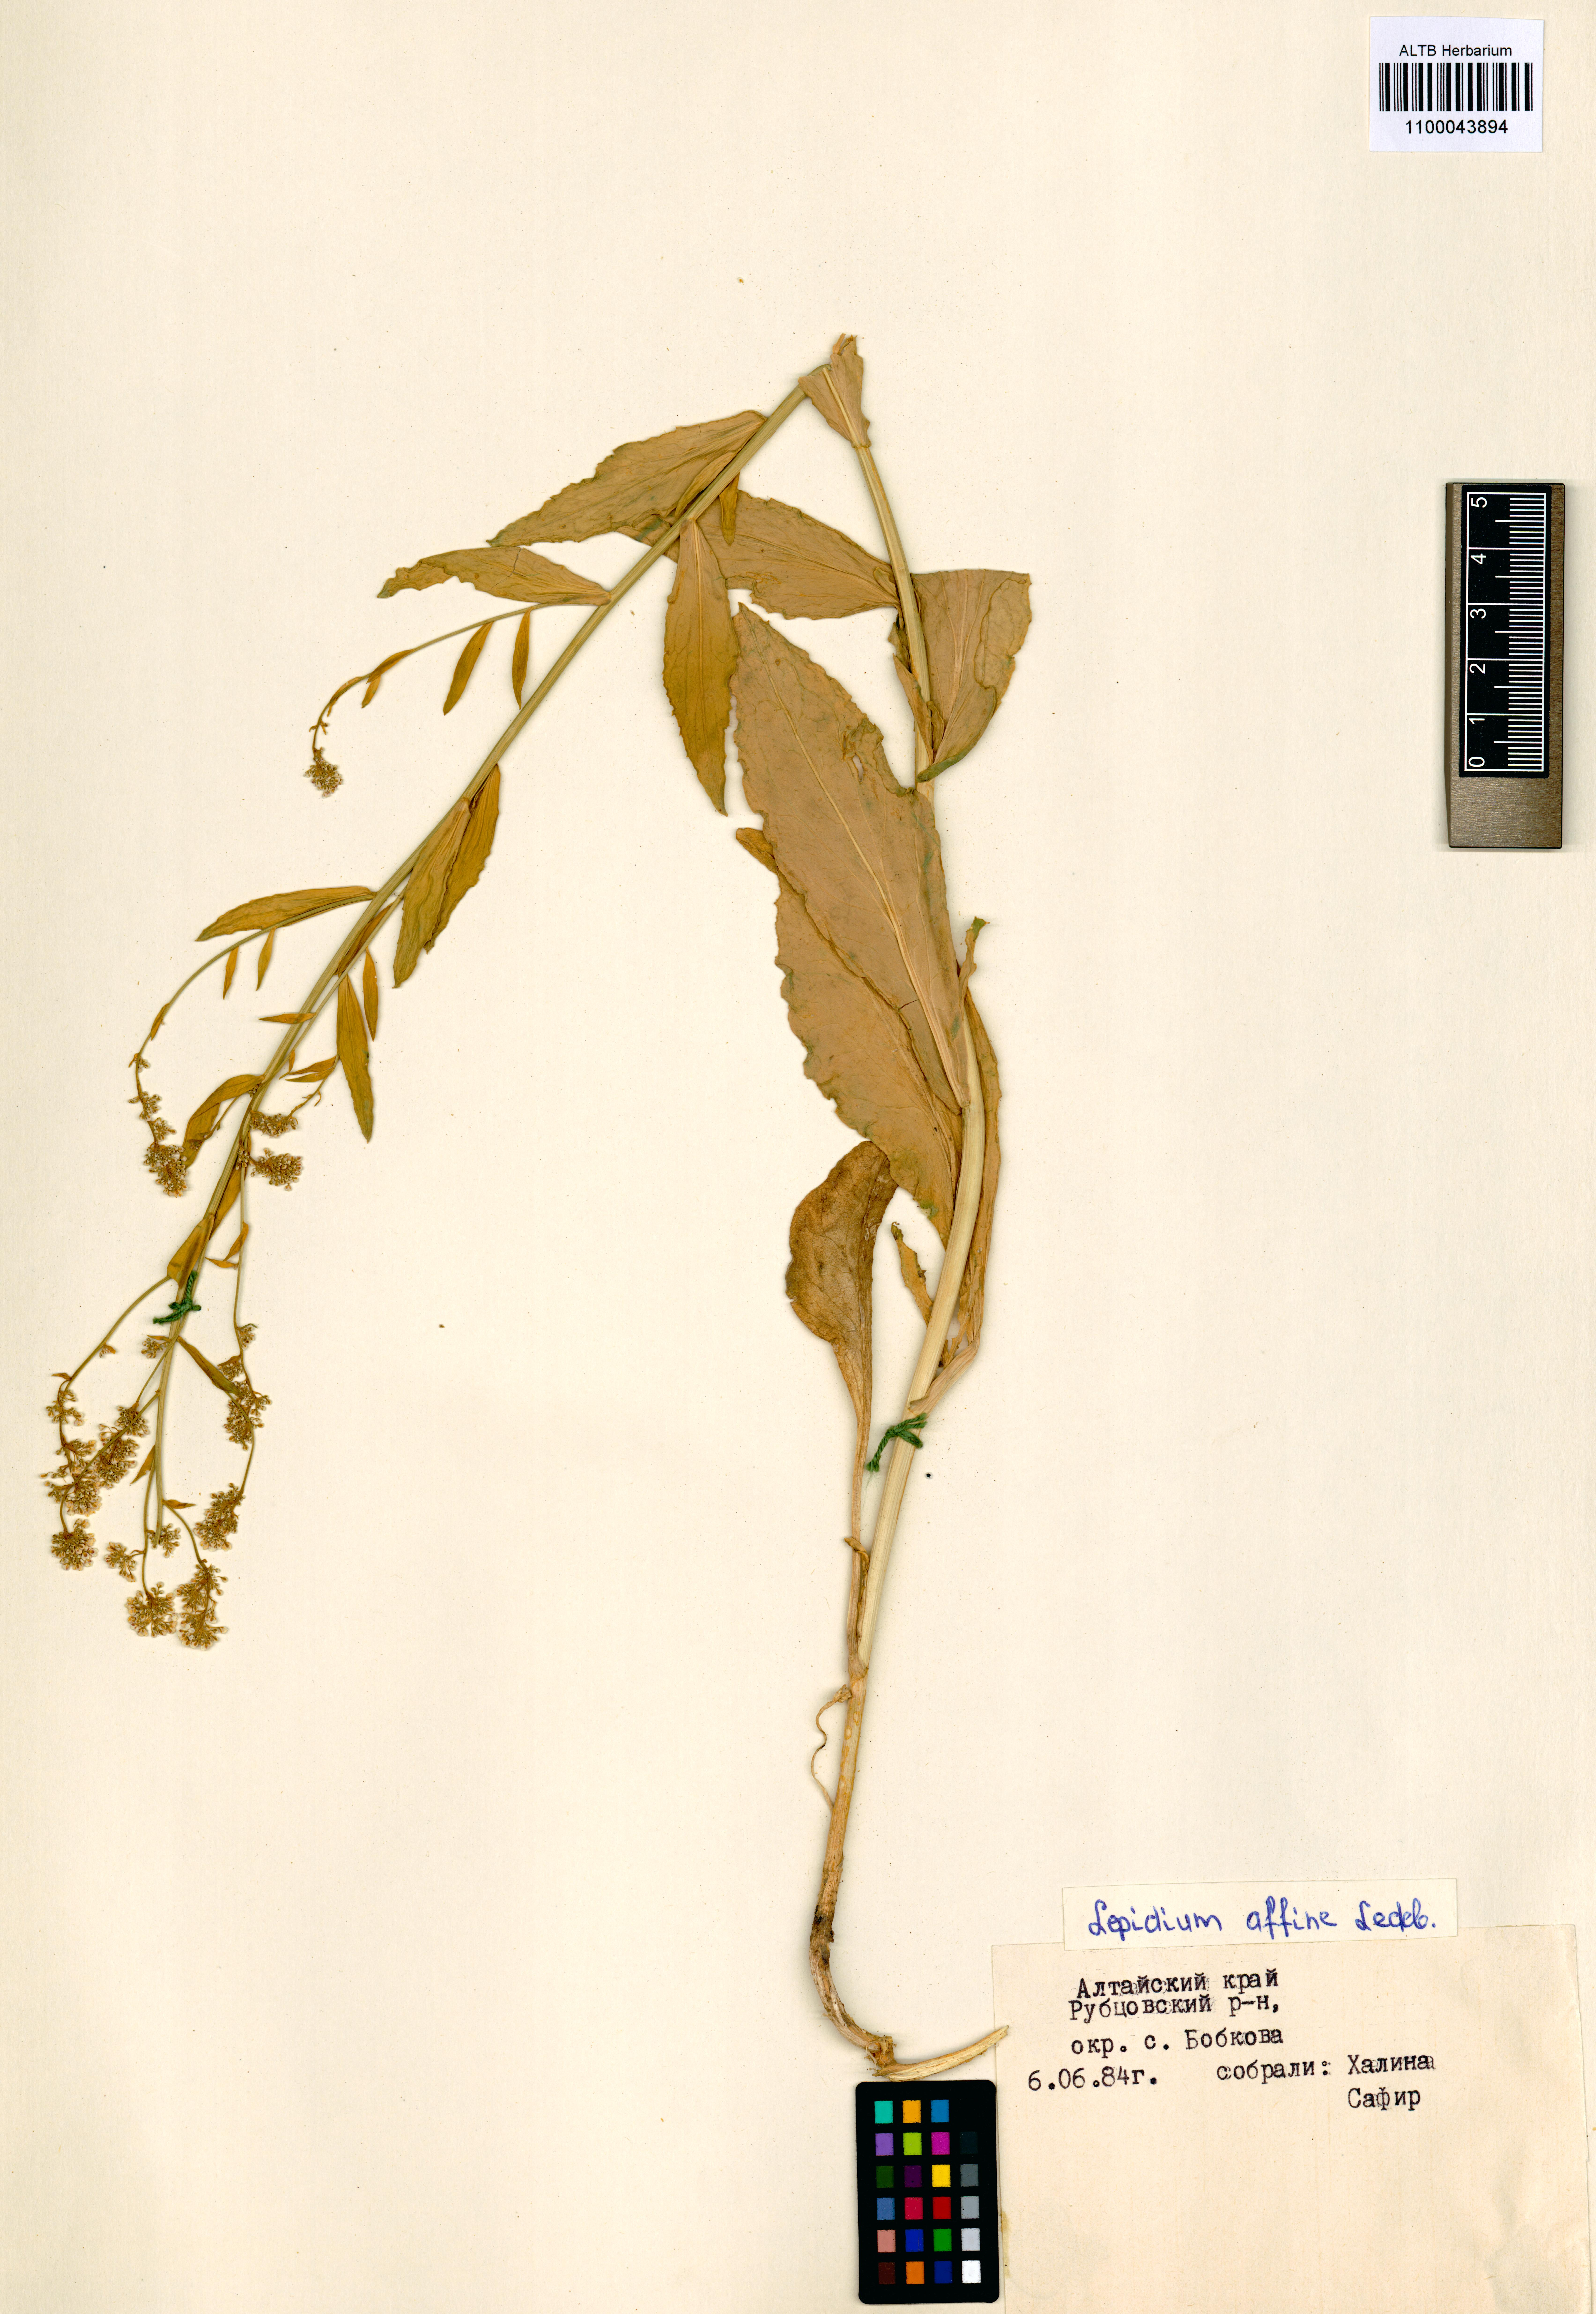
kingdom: Plantae
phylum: Tracheophyta
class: Magnoliopsida
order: Brassicales
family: Brassicaceae
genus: Lepidium
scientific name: Lepidium latifolium
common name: Dittander
